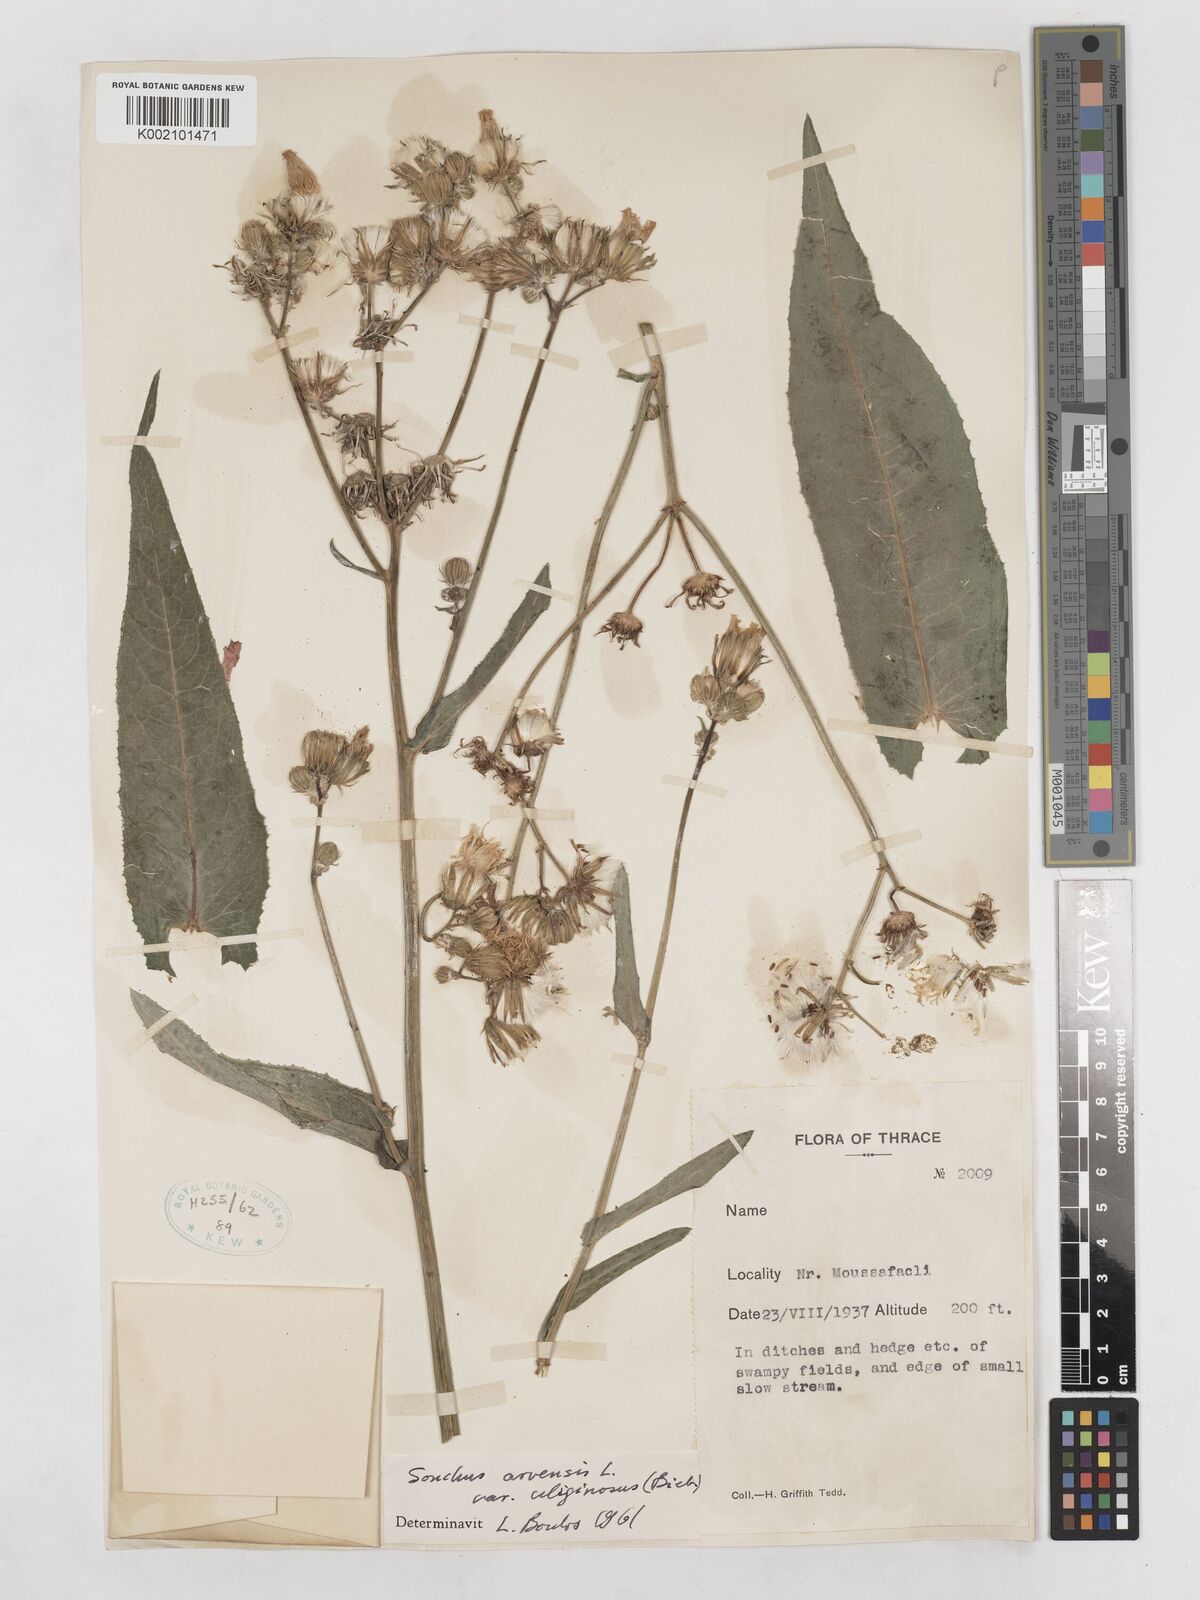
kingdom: Plantae
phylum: Tracheophyta
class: Magnoliopsida
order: Asterales
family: Asteraceae
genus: Sonchus
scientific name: Sonchus arvensis
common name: Perennial sow-thistle
